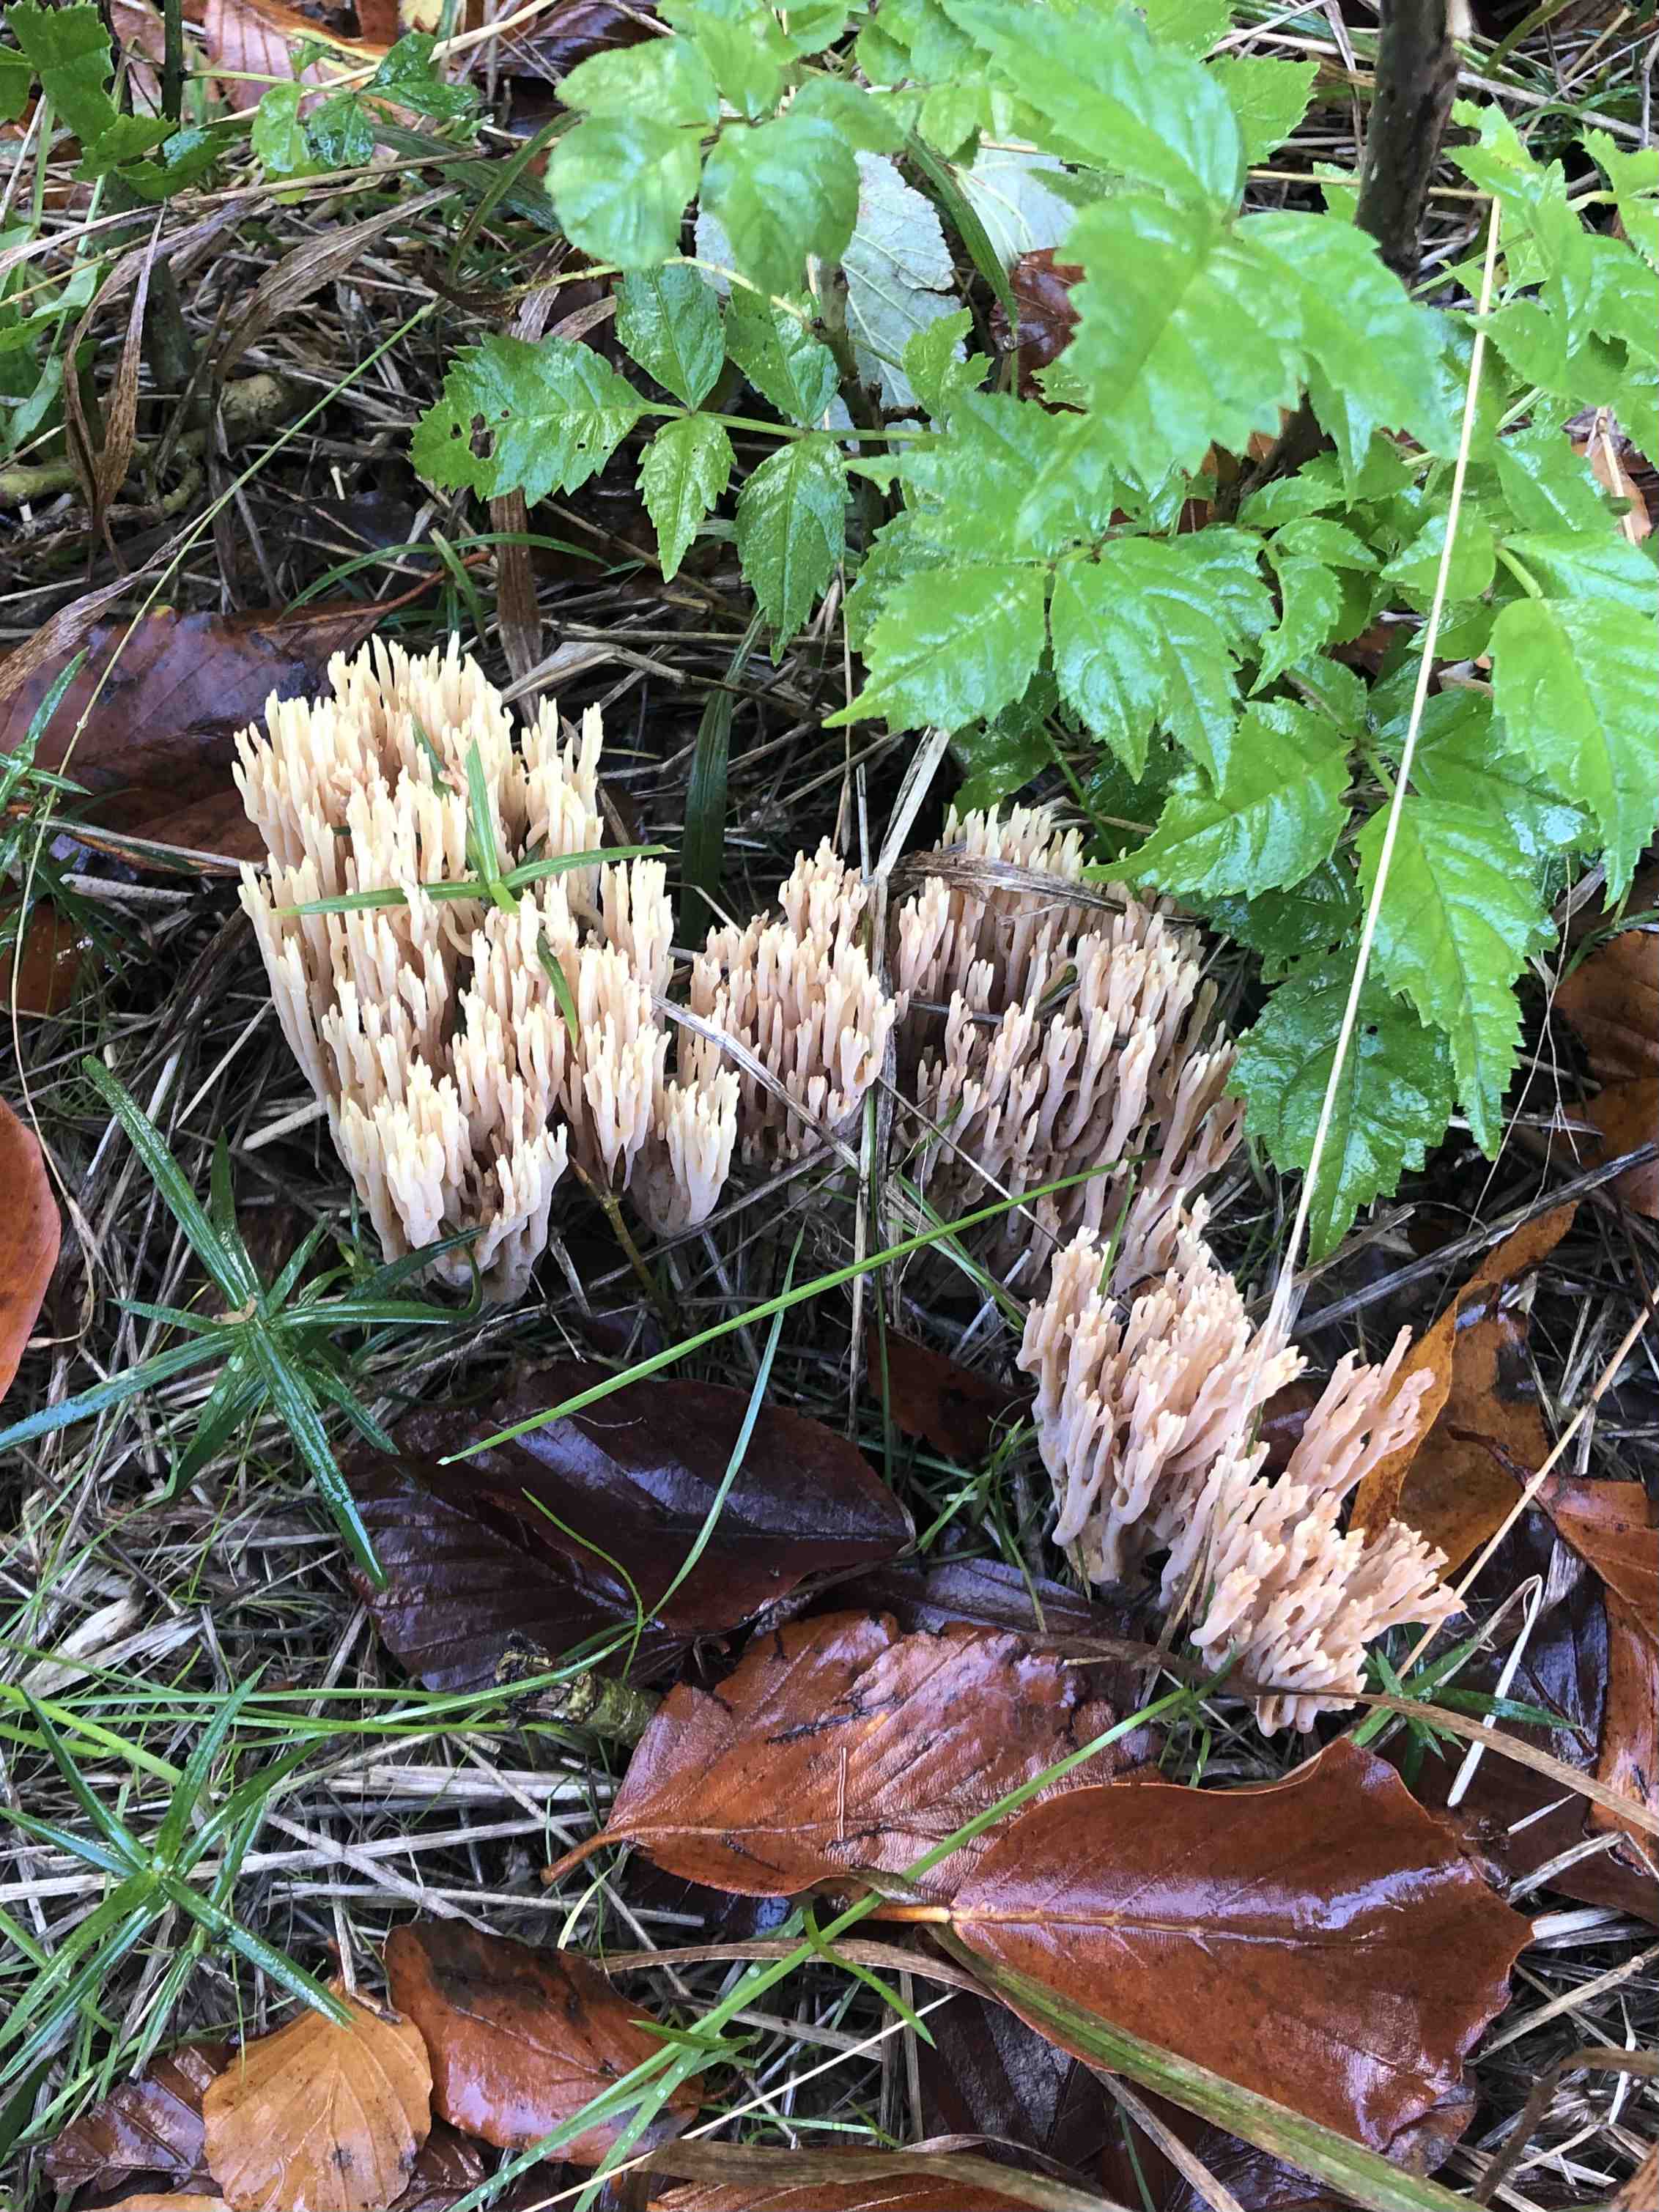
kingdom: Fungi
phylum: Basidiomycota
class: Agaricomycetes
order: Gomphales
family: Gomphaceae
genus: Ramaria
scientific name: Ramaria stricta
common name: rank koralsvamp
